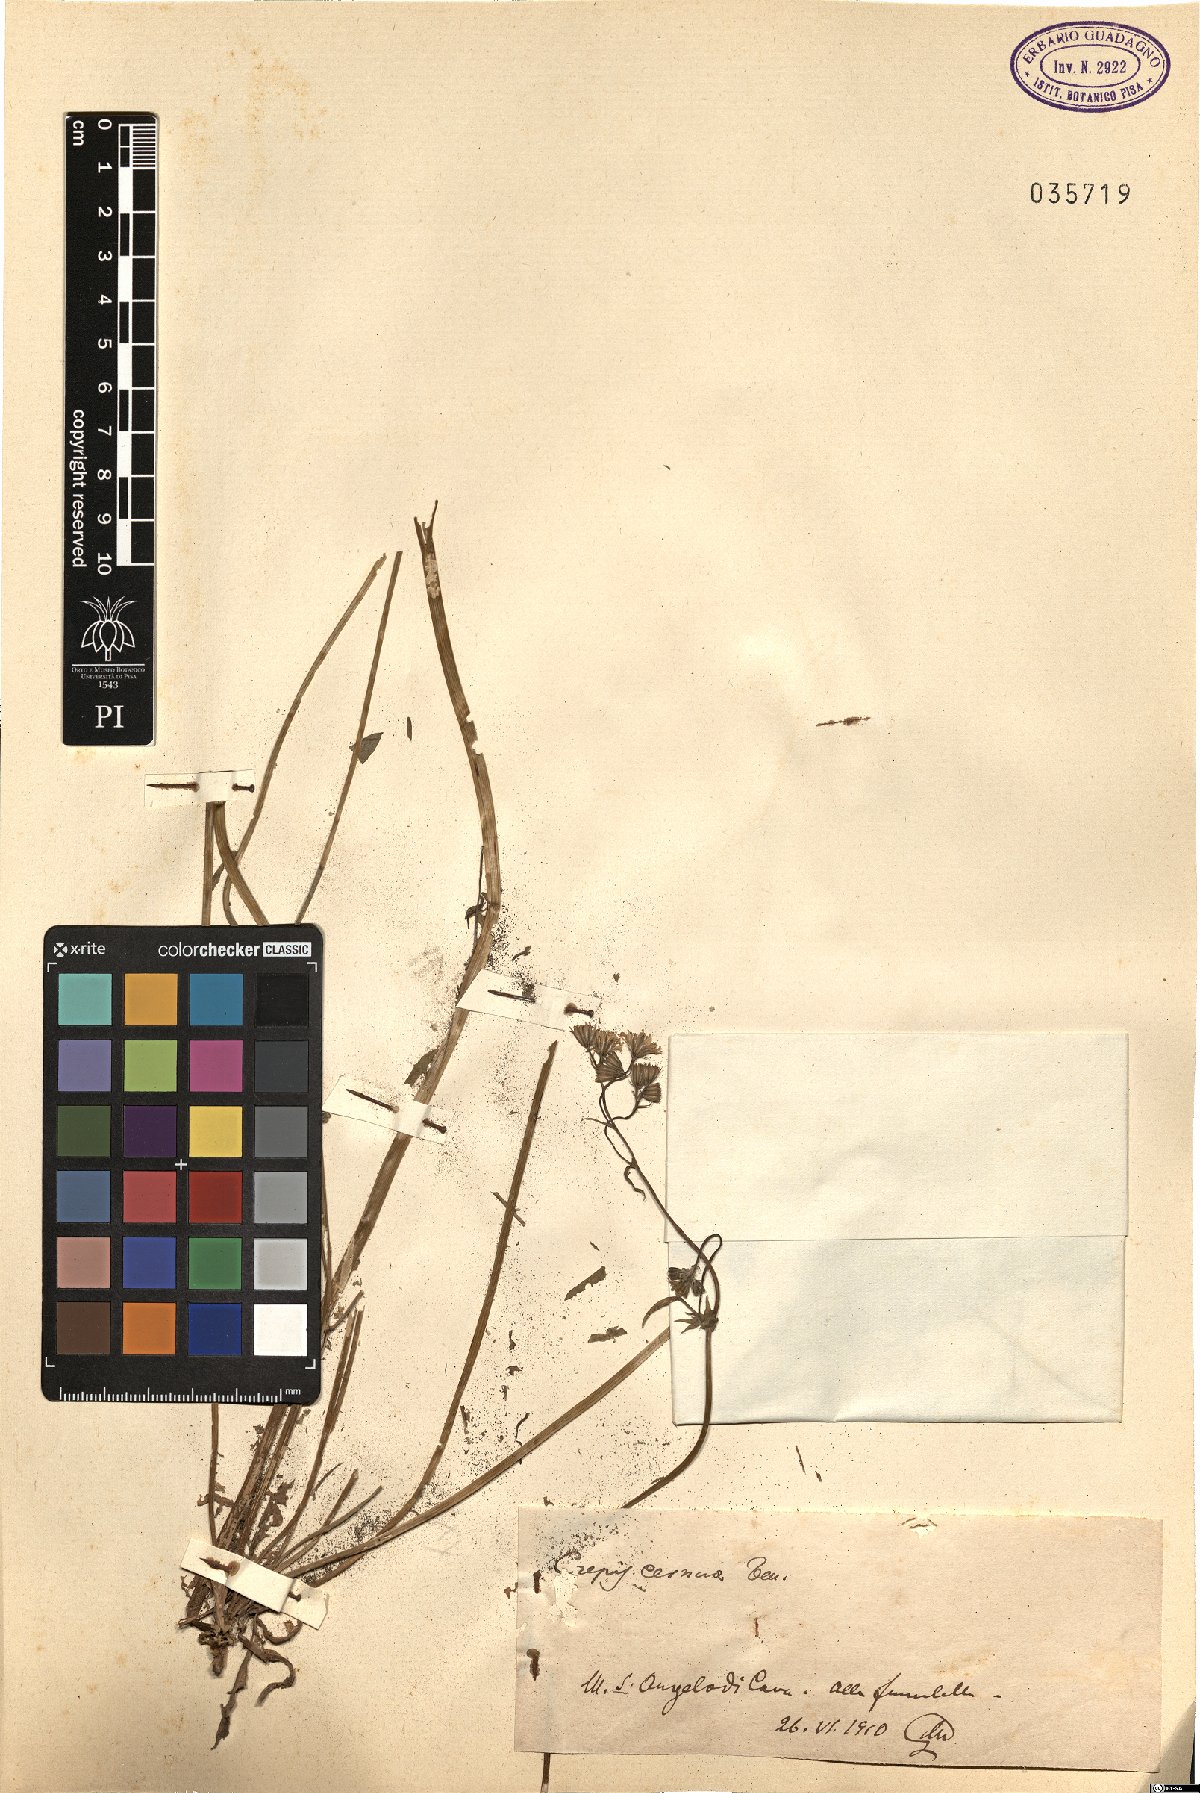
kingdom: Plantae
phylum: Tracheophyta
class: Magnoliopsida
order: Asterales
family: Asteraceae
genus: Crepis
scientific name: Crepis neglecta
